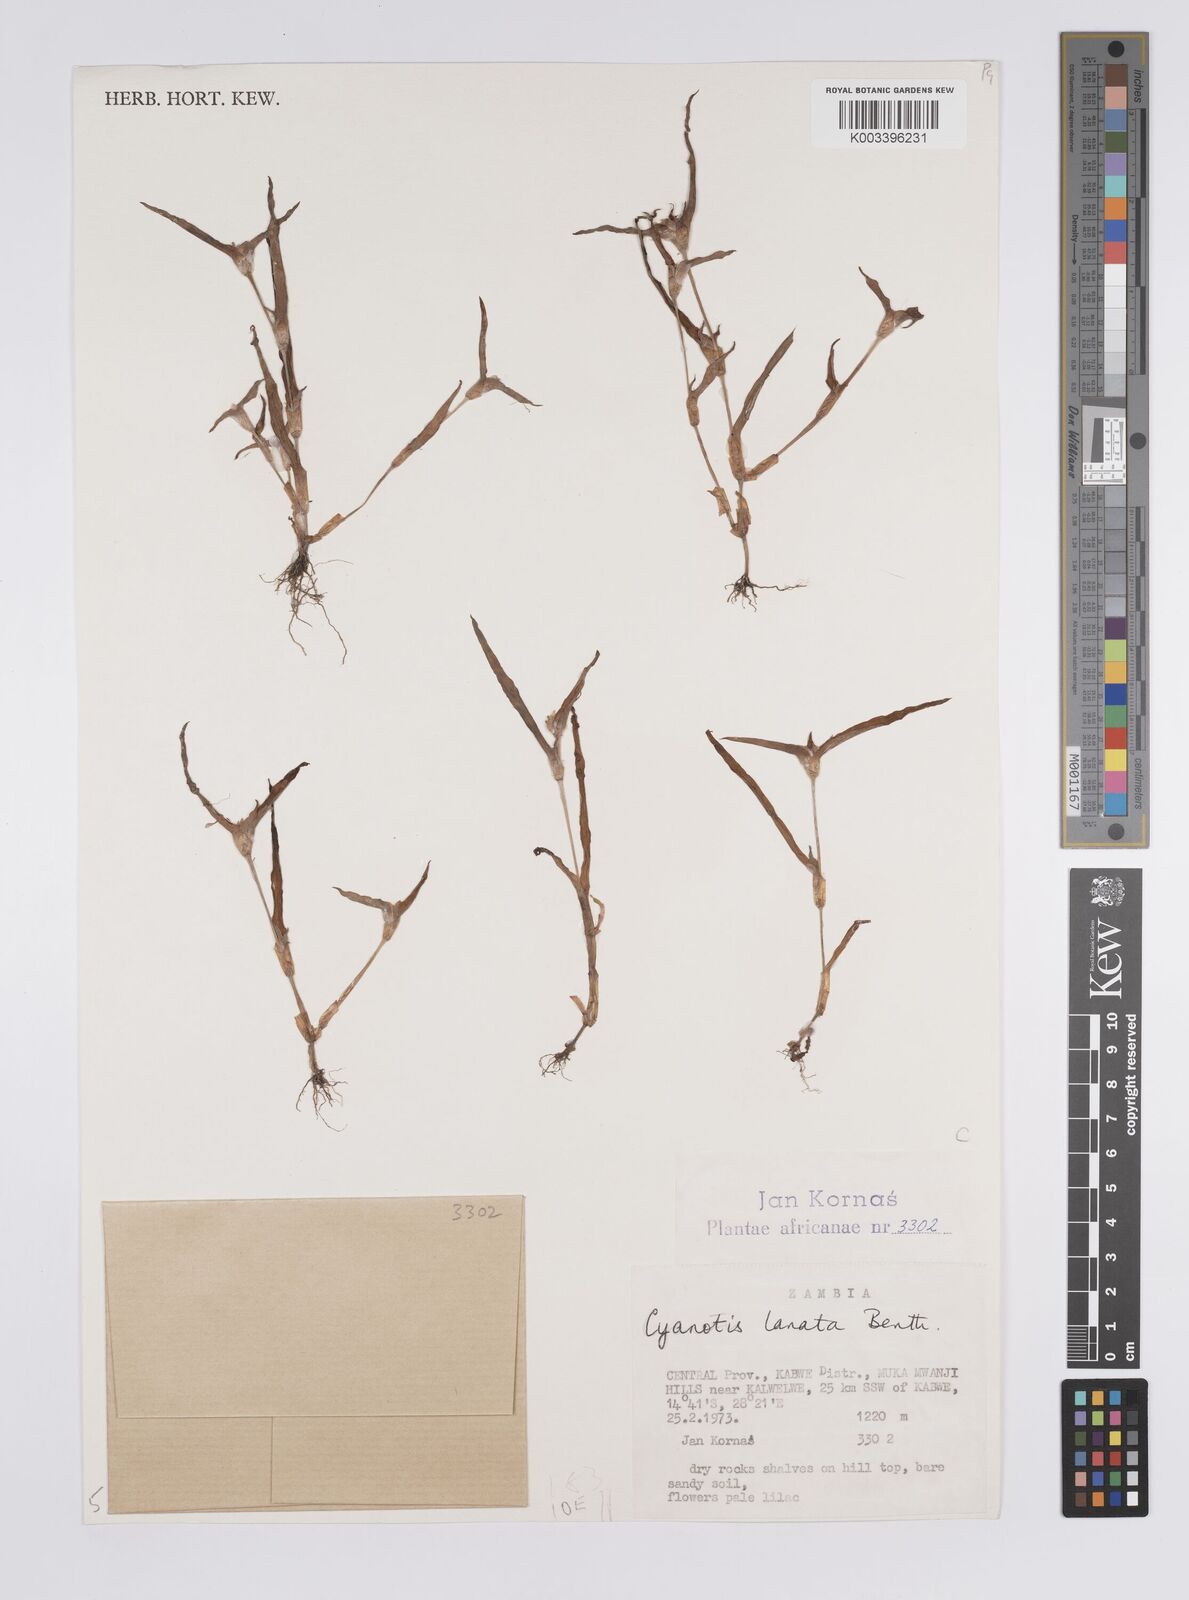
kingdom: Plantae
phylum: Tracheophyta
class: Liliopsida
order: Commelinales
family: Commelinaceae
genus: Cyanotis
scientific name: Cyanotis lanata
